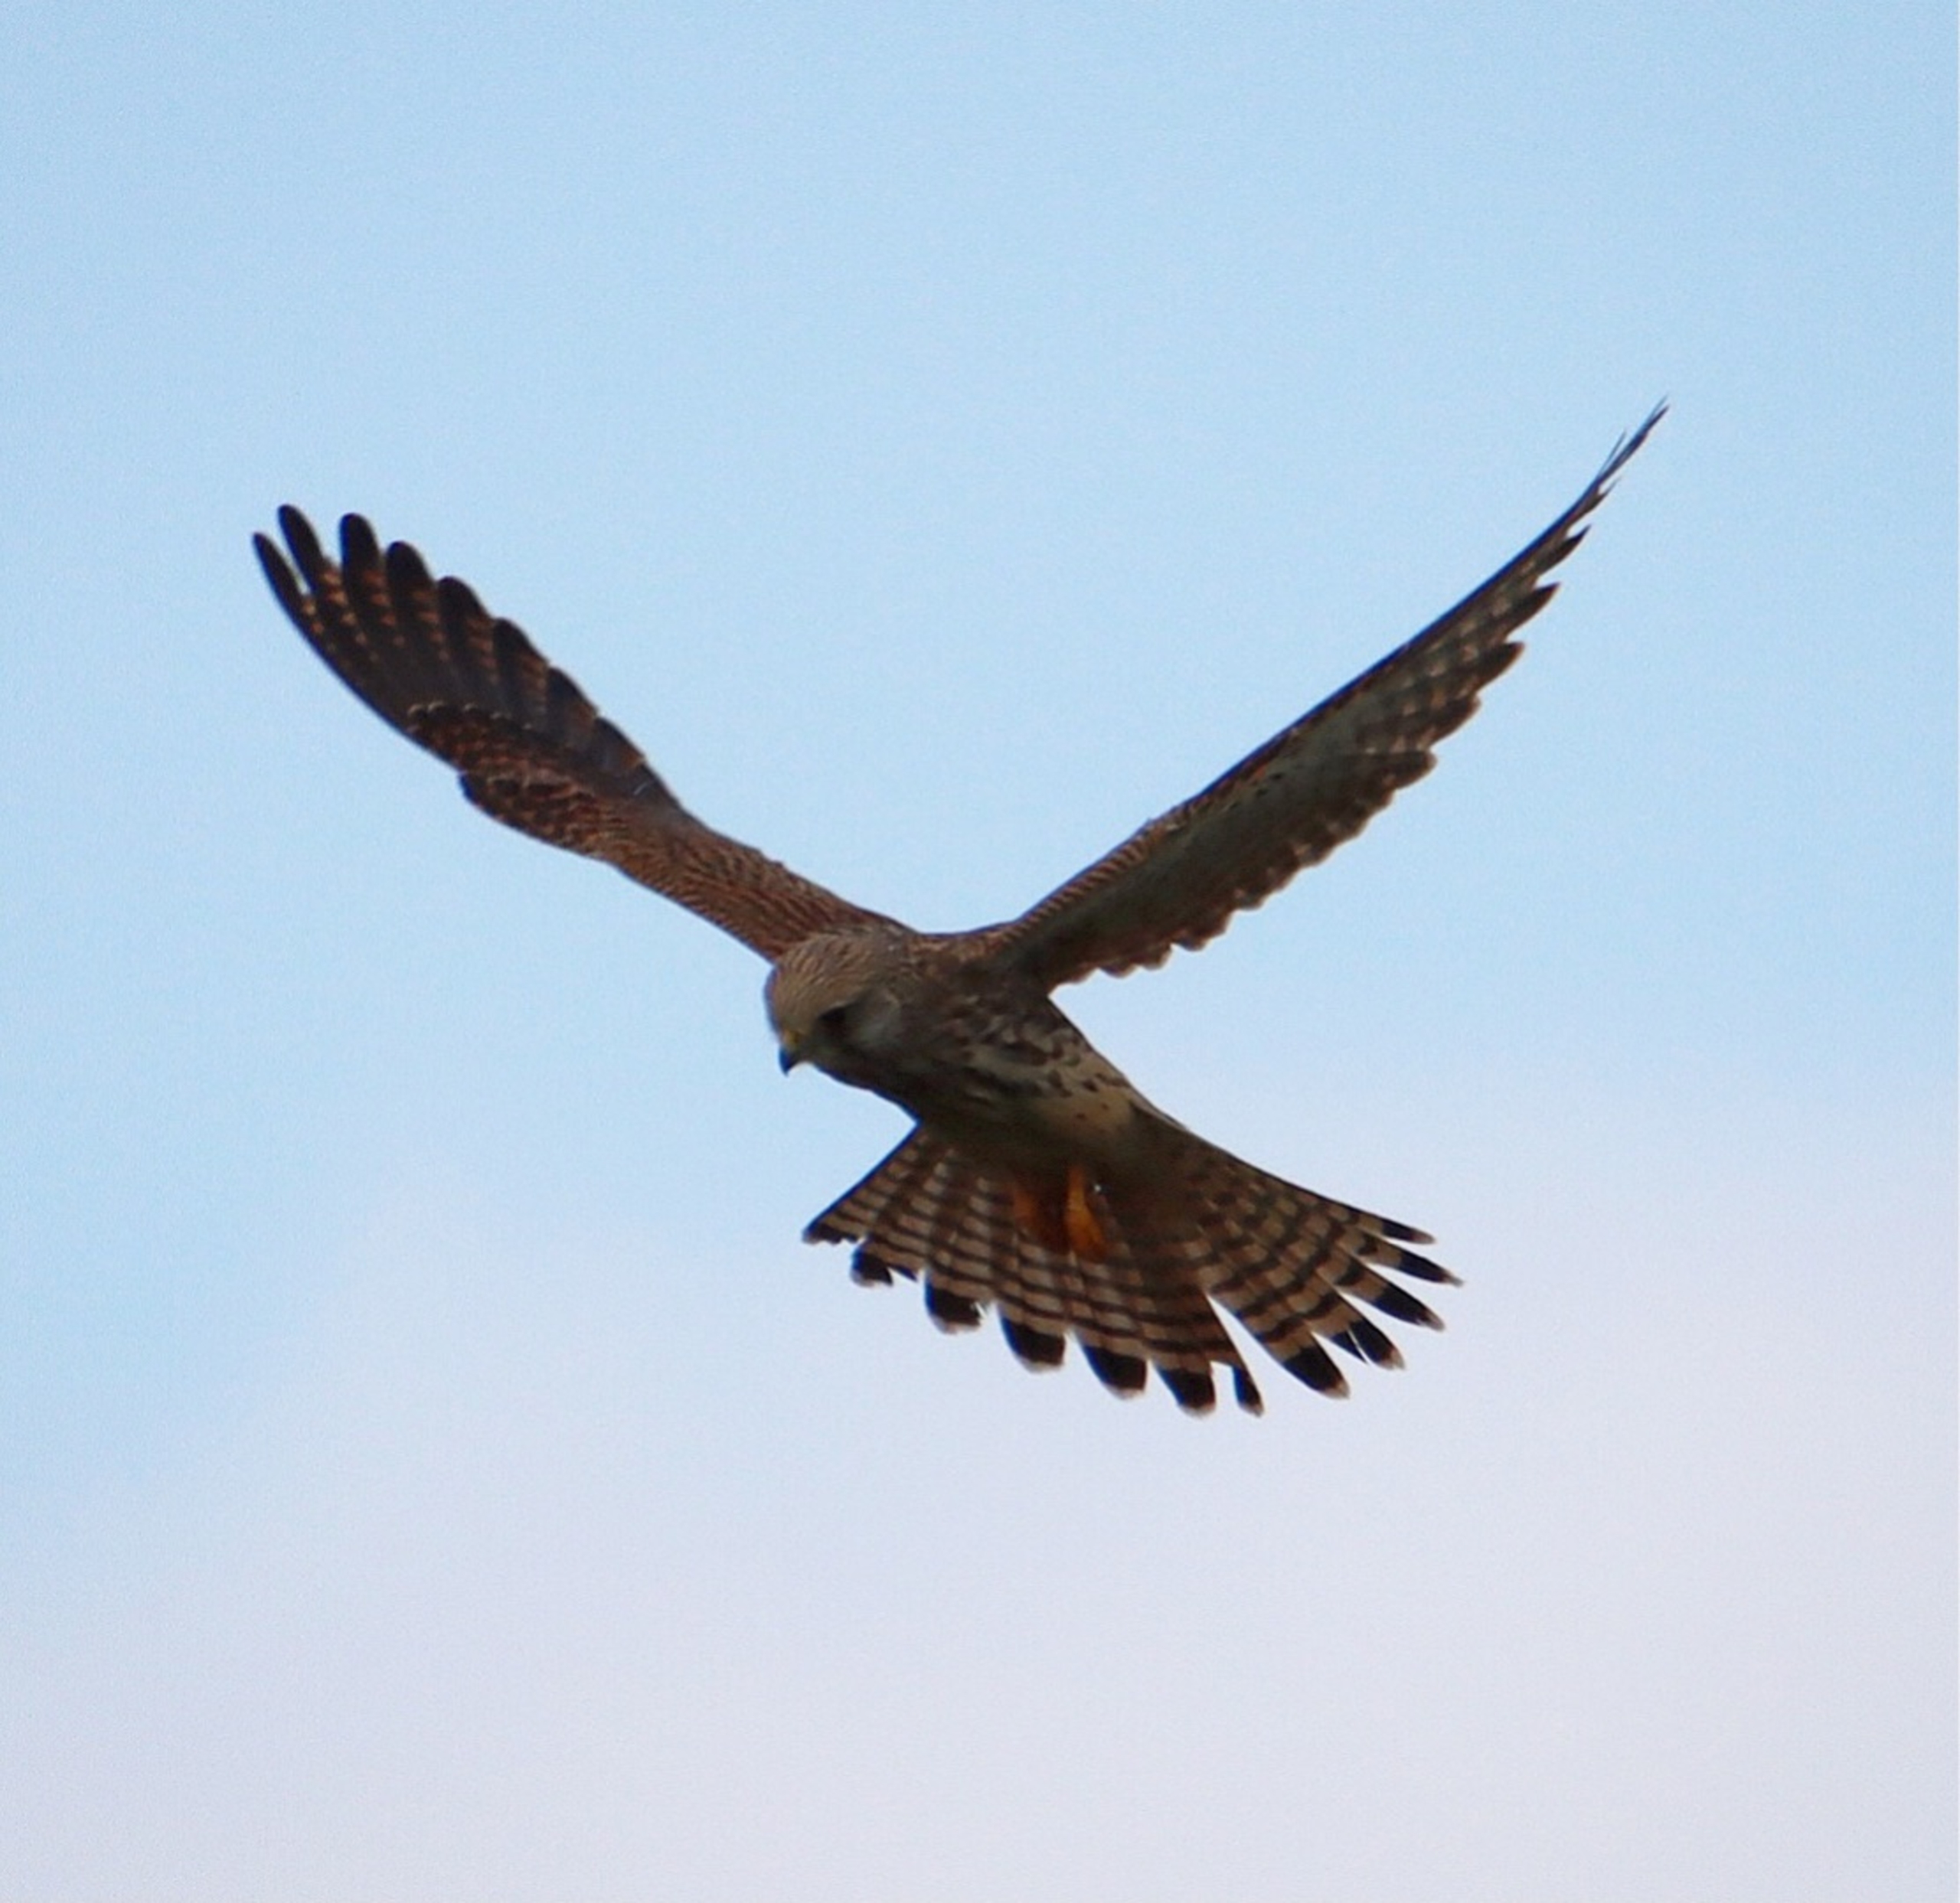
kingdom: Animalia
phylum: Chordata
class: Aves
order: Falconiformes
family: Falconidae
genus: Falco
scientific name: Falco tinnunculus
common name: Tårnfalk
